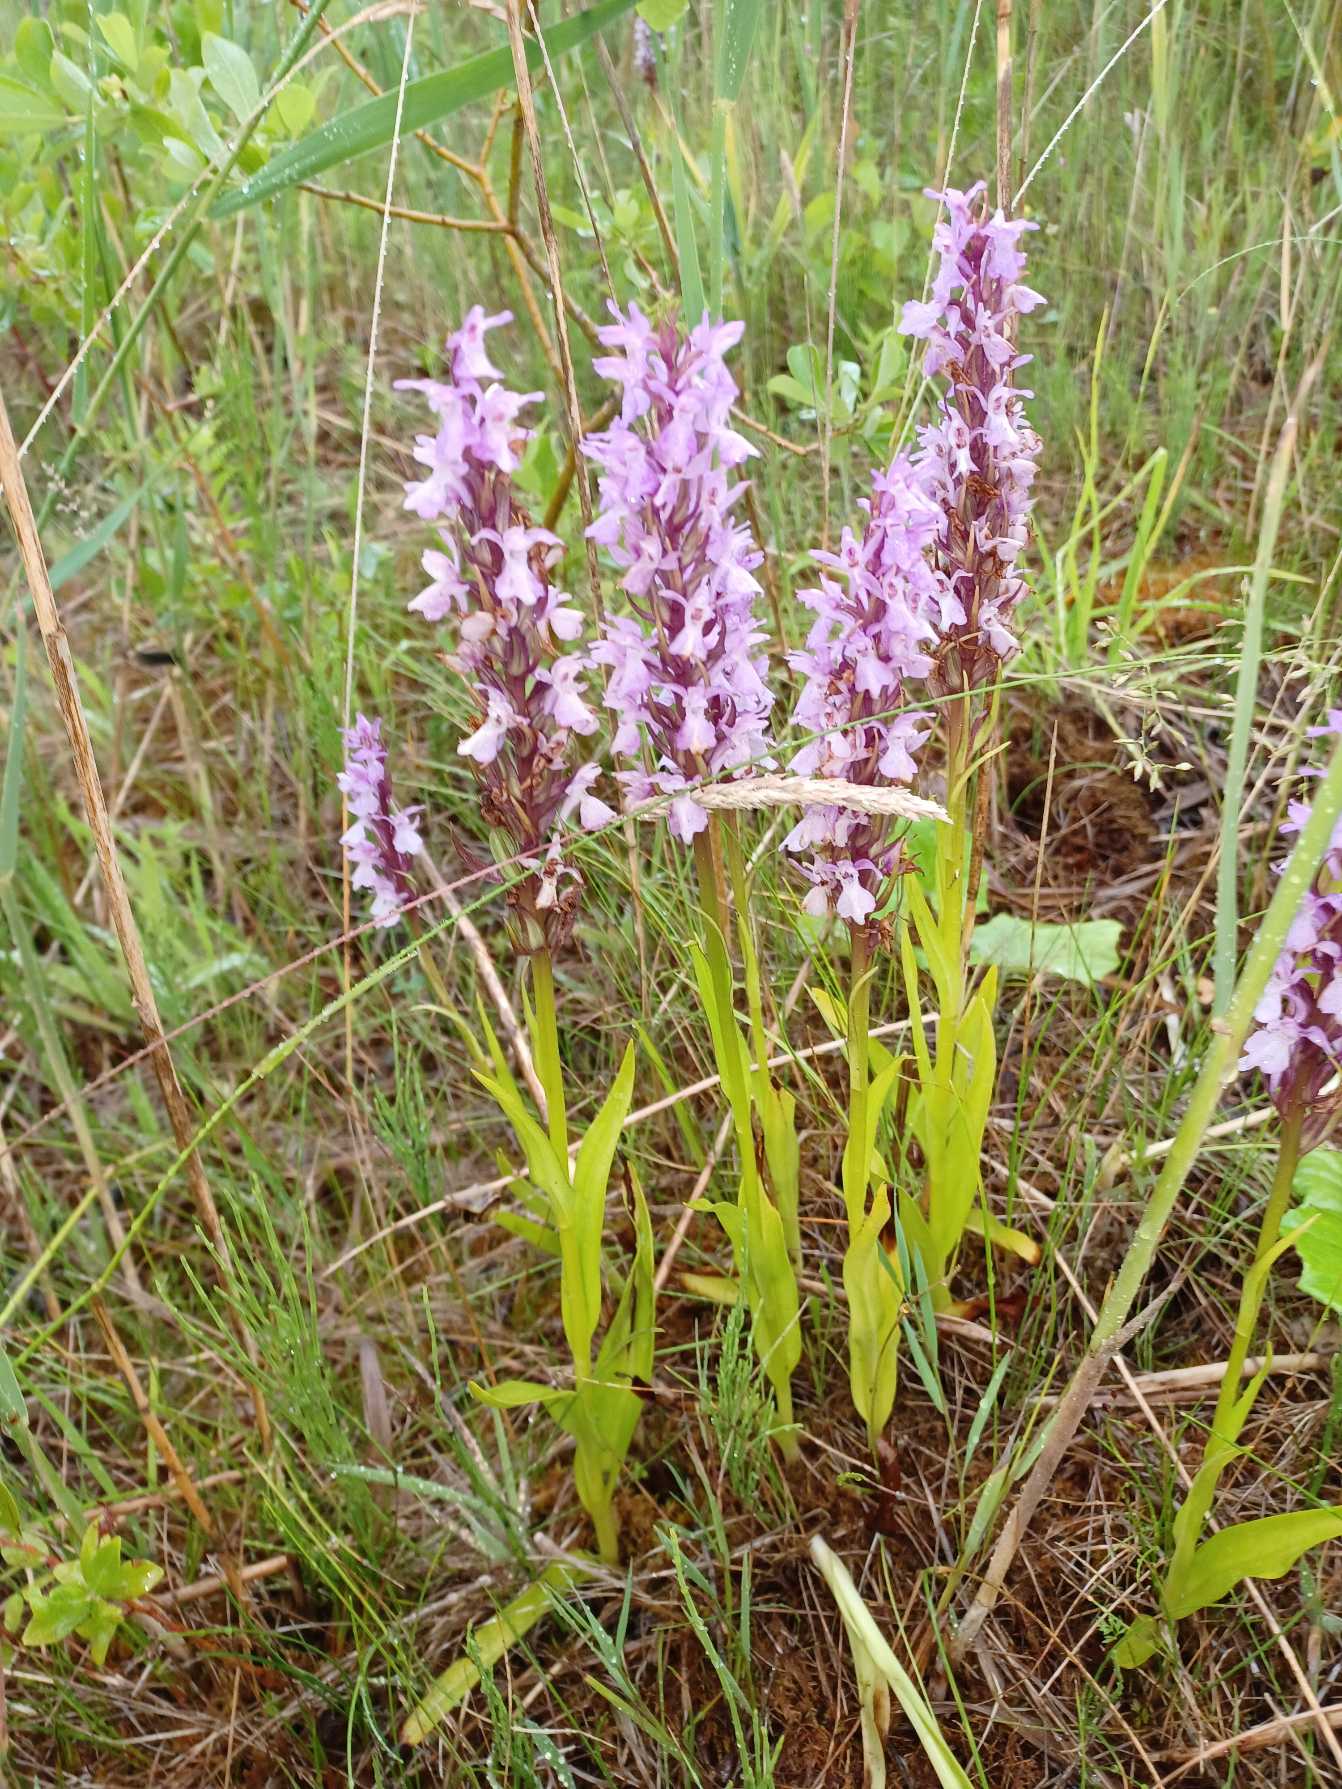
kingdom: Plantae
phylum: Tracheophyta
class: Liliopsida
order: Asparagales
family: Orchidaceae
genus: Dactylorhiza
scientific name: Dactylorhiza majalis
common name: Priklæbet gøgeurt
